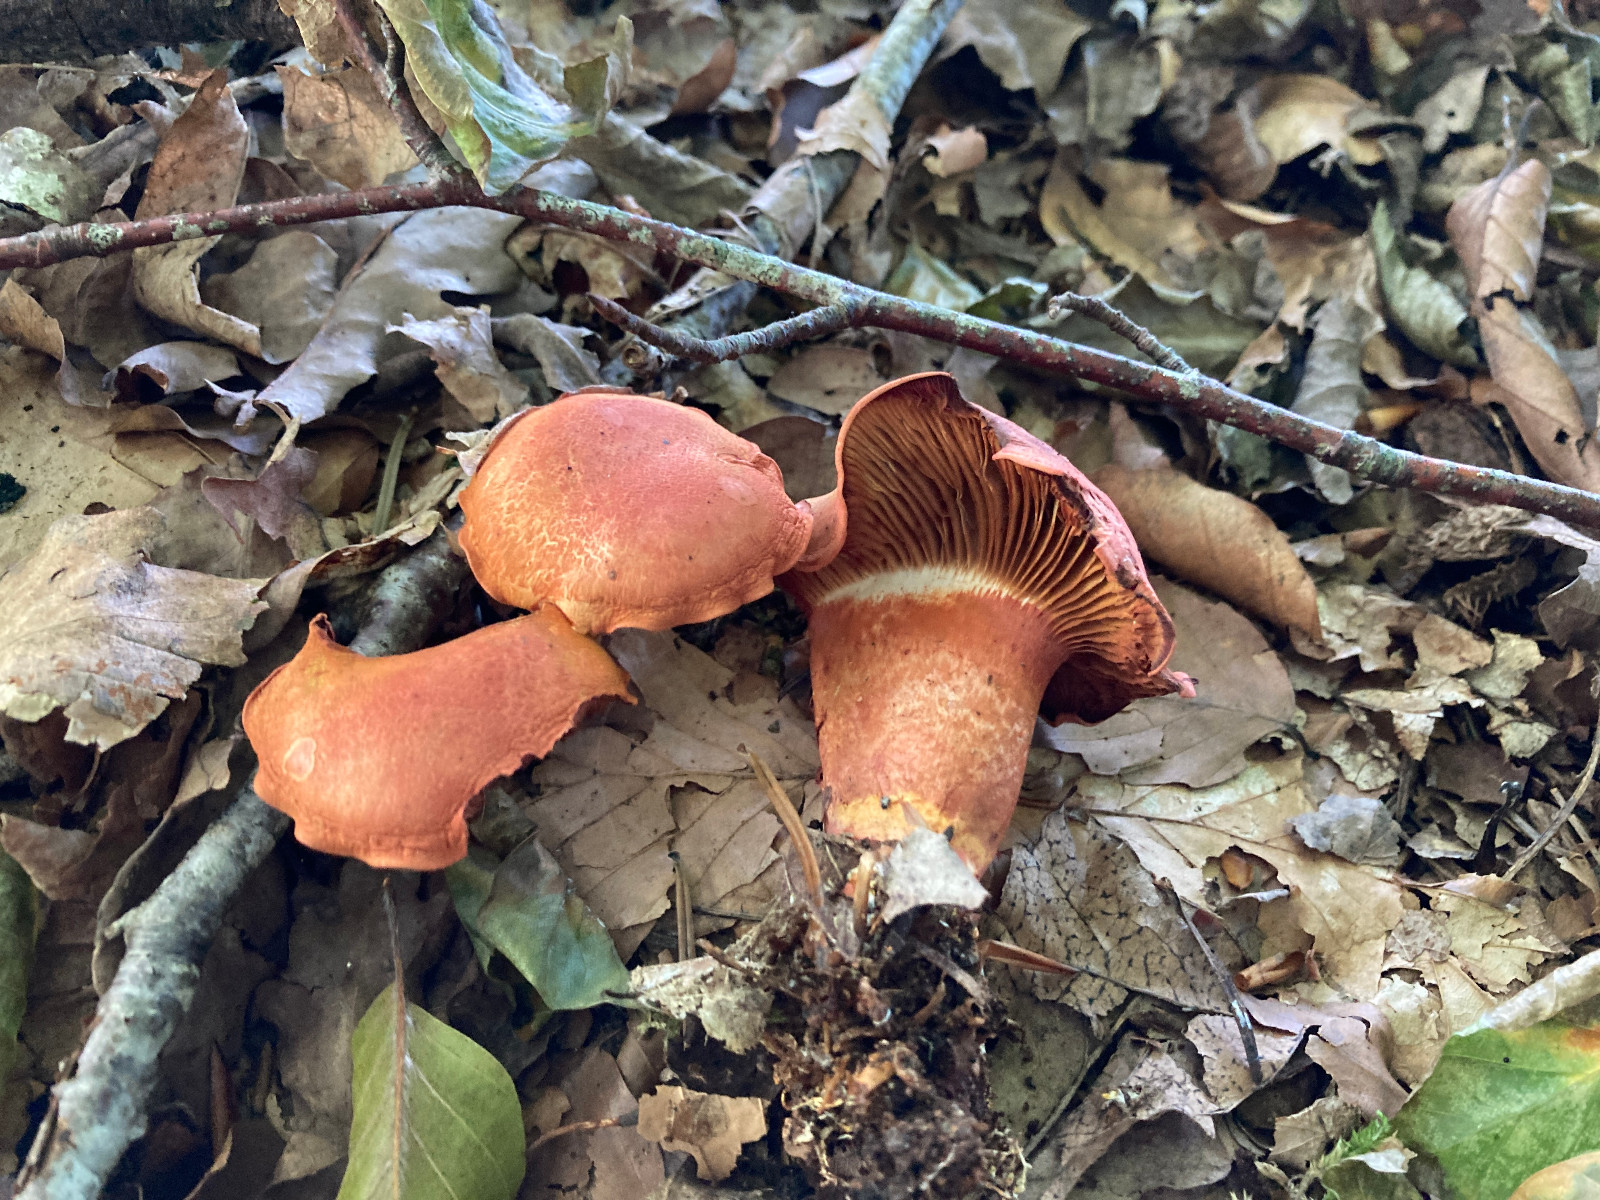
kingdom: Fungi
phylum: Basidiomycota
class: Agaricomycetes
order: Agaricales
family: Cortinariaceae
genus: Cortinarius
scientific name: Cortinarius bolaris
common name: cinnoberskællet slørhat
